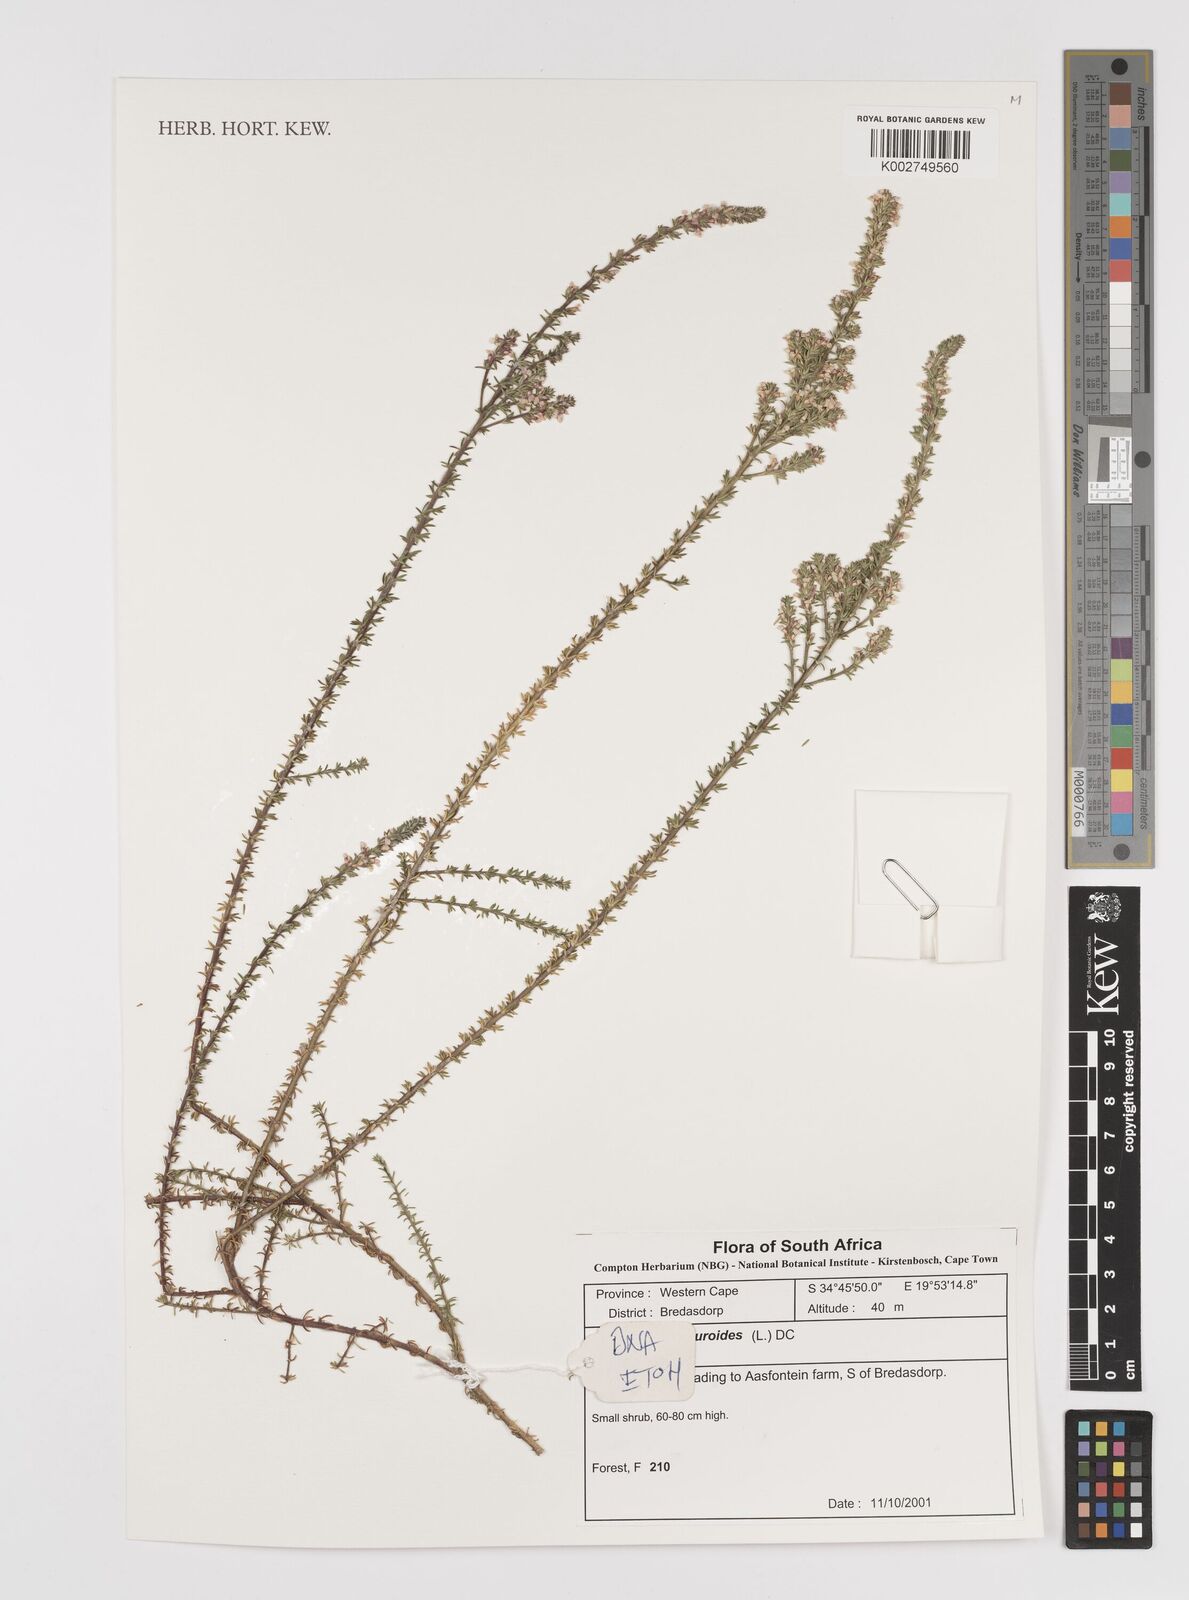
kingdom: Plantae
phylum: Tracheophyta
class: Magnoliopsida
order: Fabales
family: Polygalaceae
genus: Muraltia
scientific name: Muraltia alopecuroides
